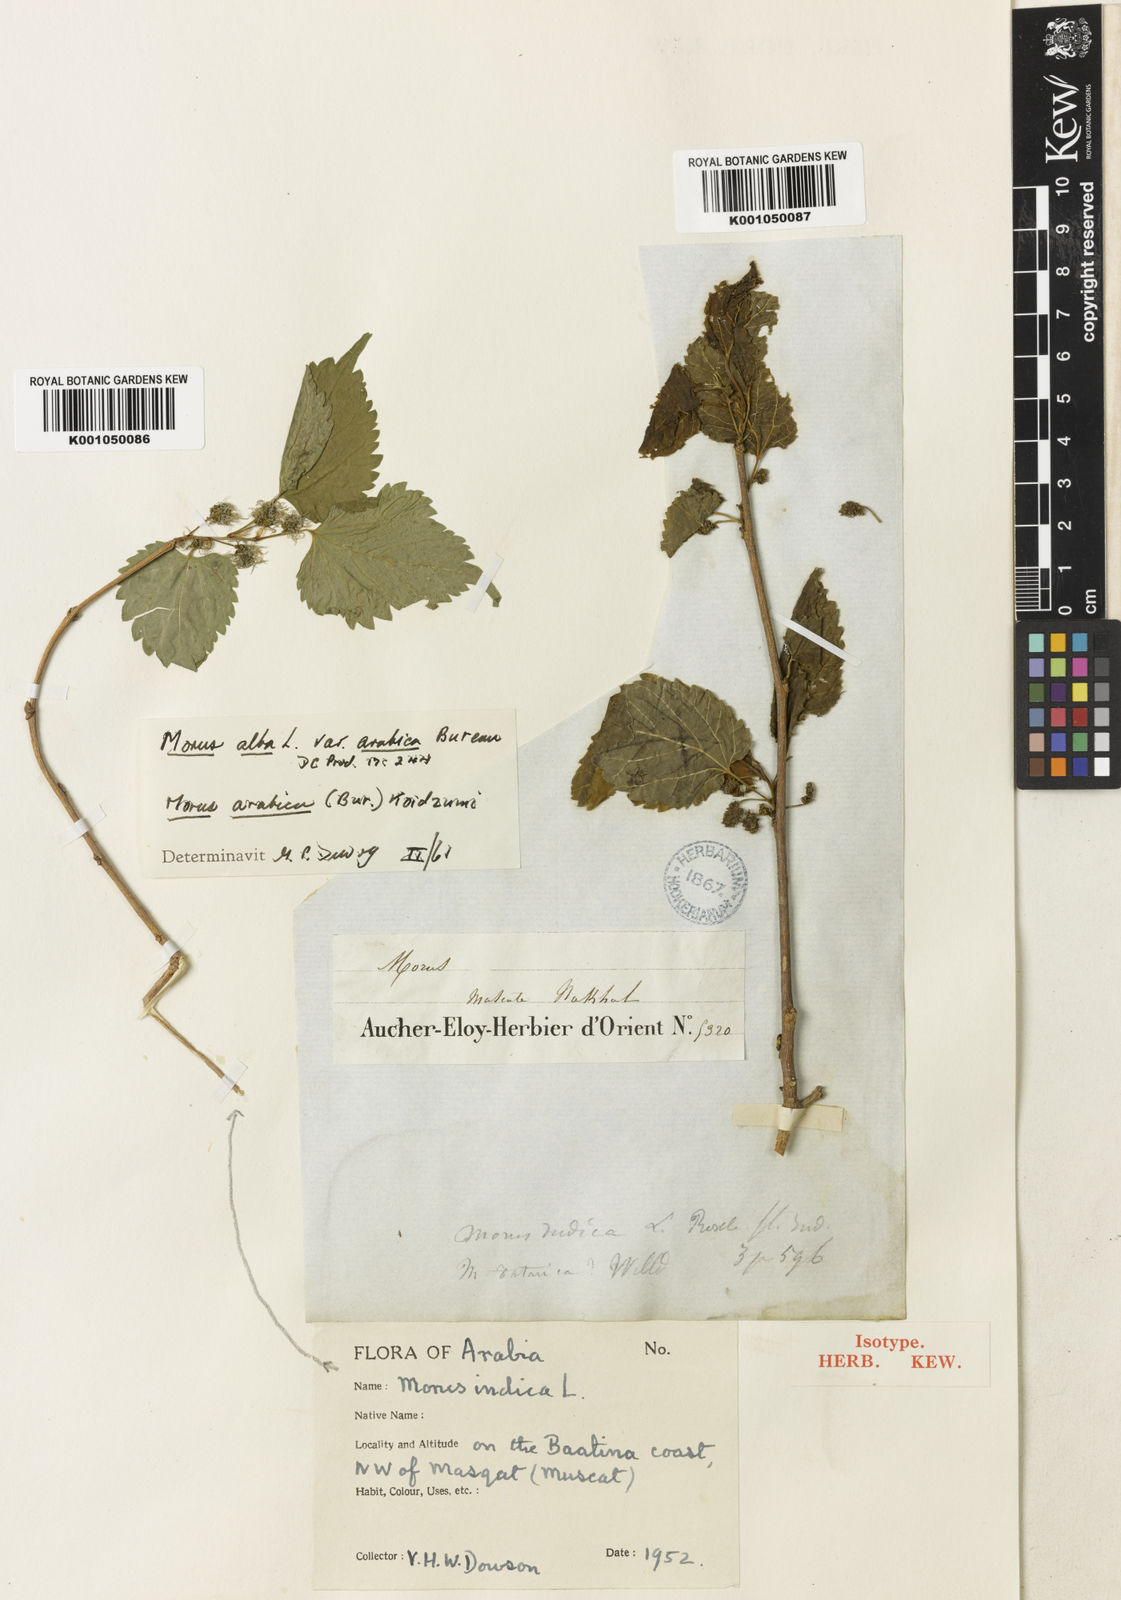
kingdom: Plantae
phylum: Tracheophyta
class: Magnoliopsida
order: Rosales
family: Moraceae
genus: Morus
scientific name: Morus alba
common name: White mulberry
